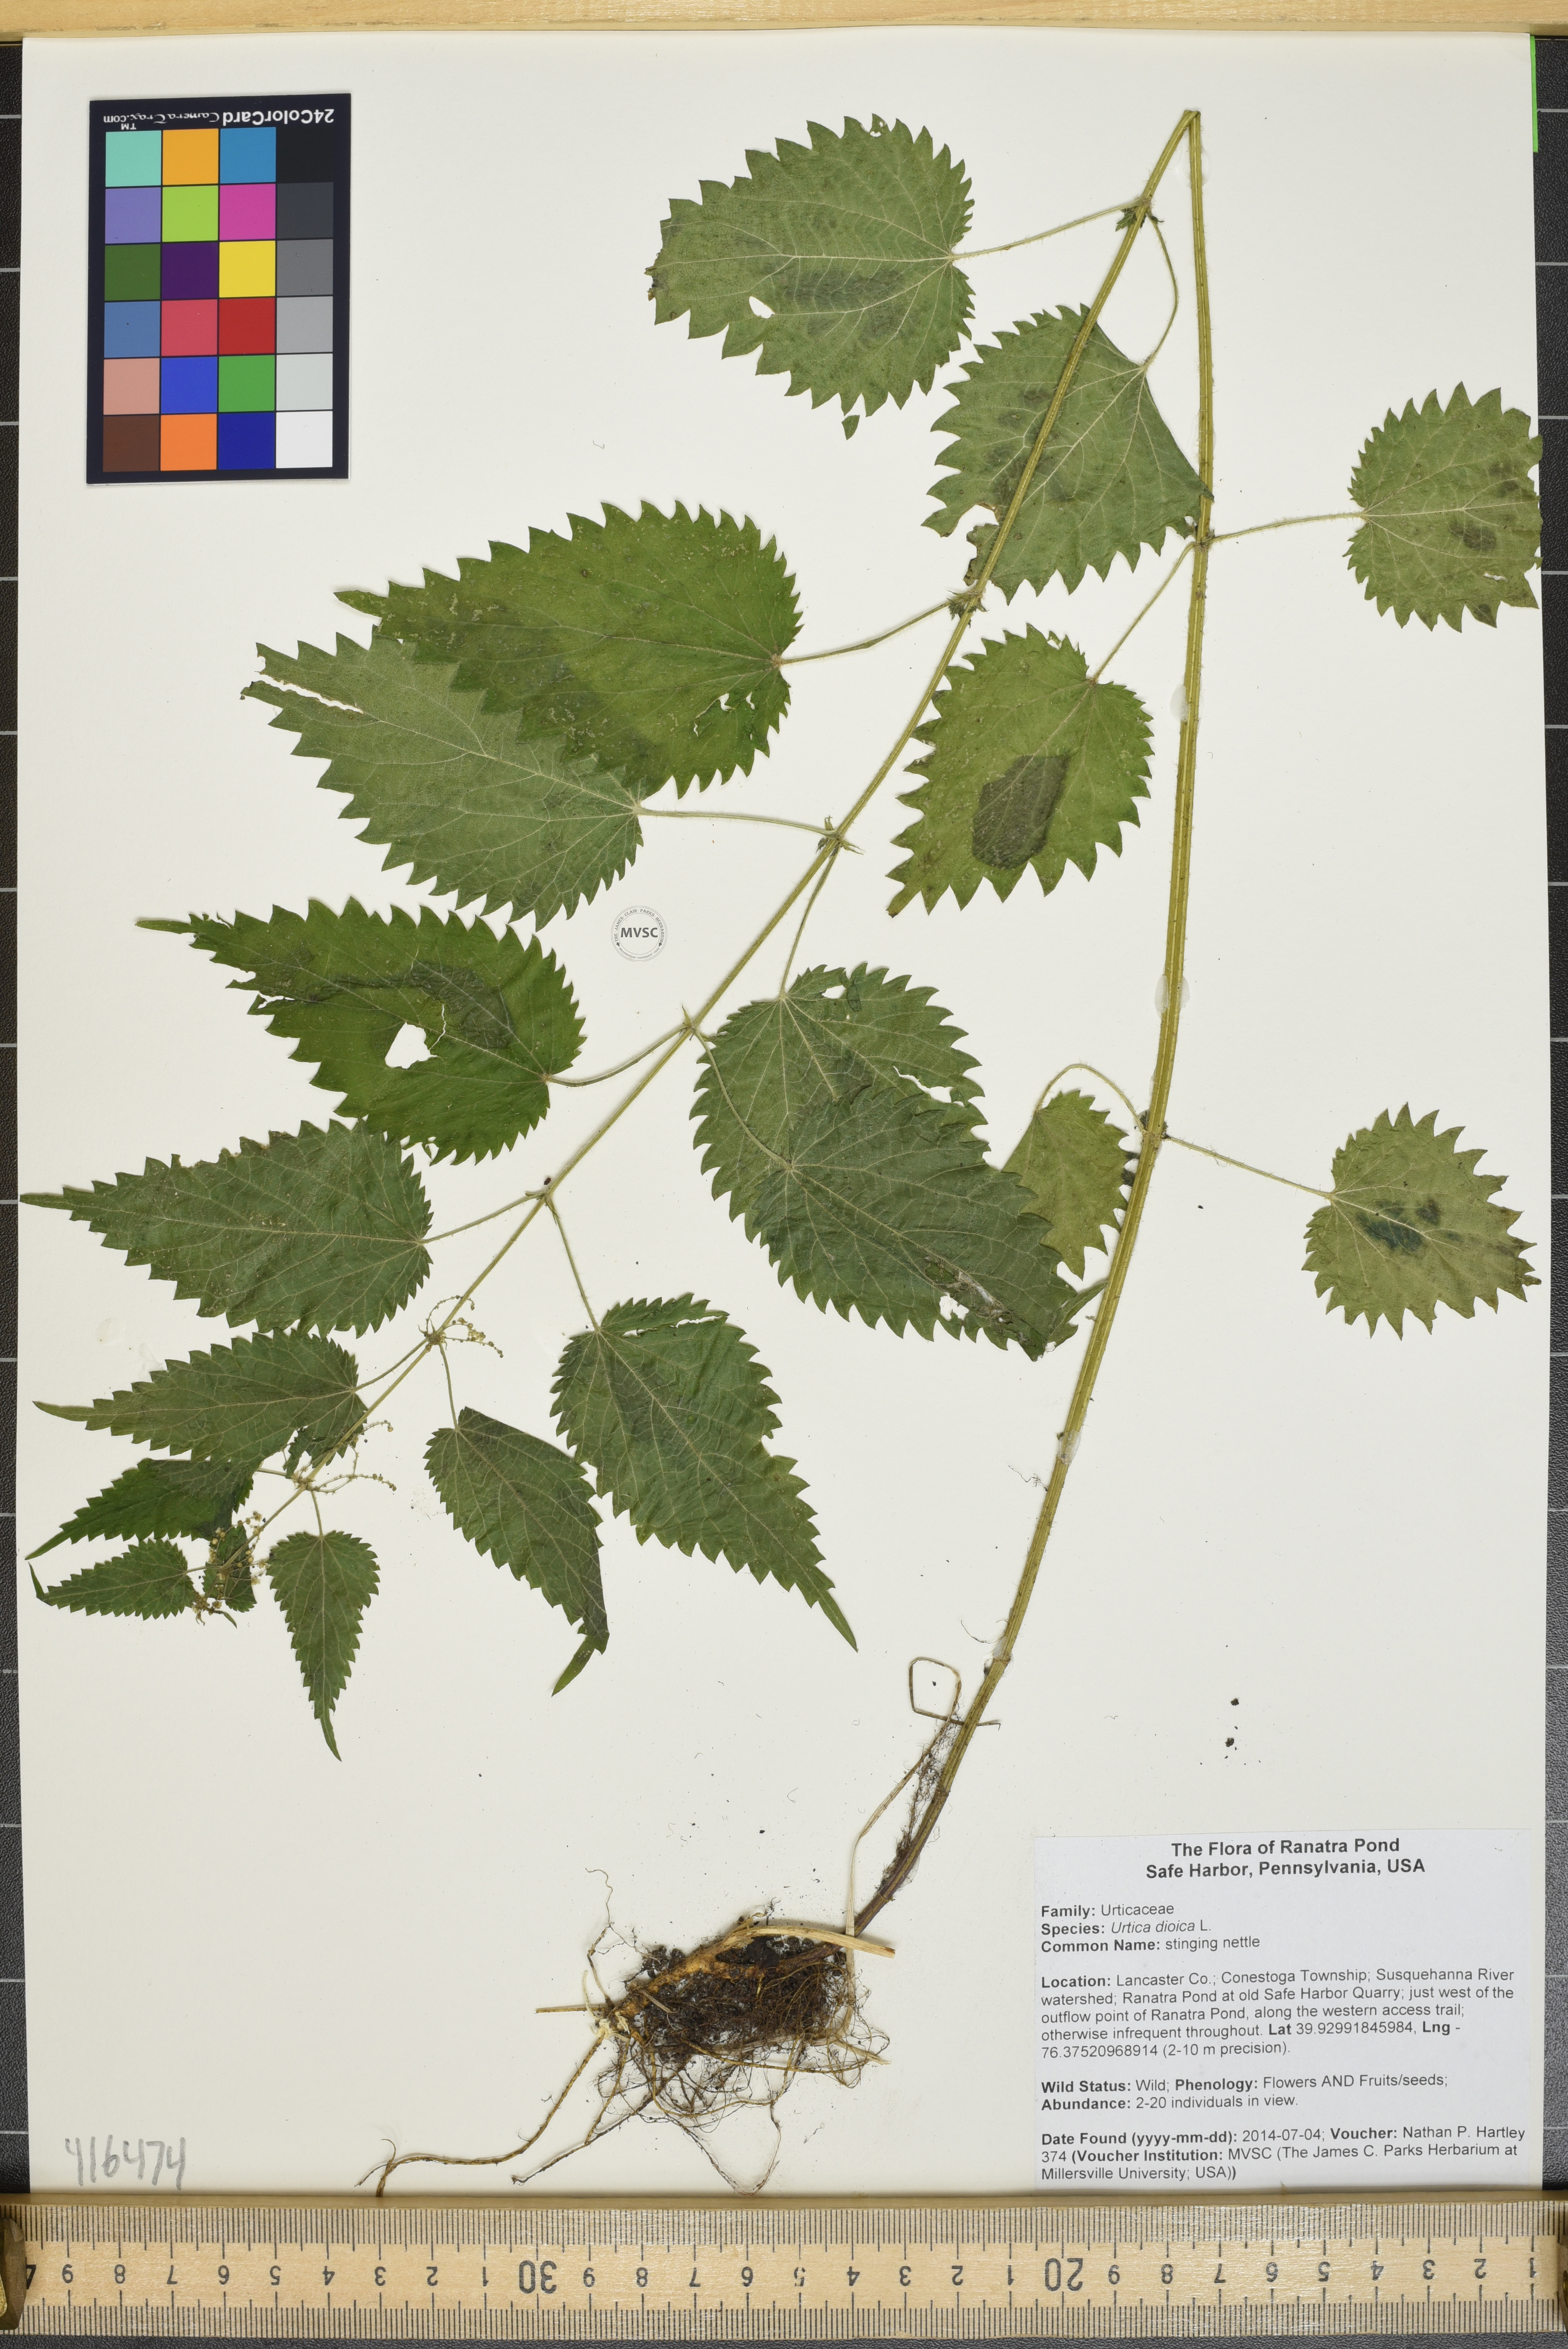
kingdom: Plantae
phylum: Tracheophyta
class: Magnoliopsida
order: Rosales
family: Urticaceae
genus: Urtica
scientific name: Urtica dioica
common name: stinging nettle
